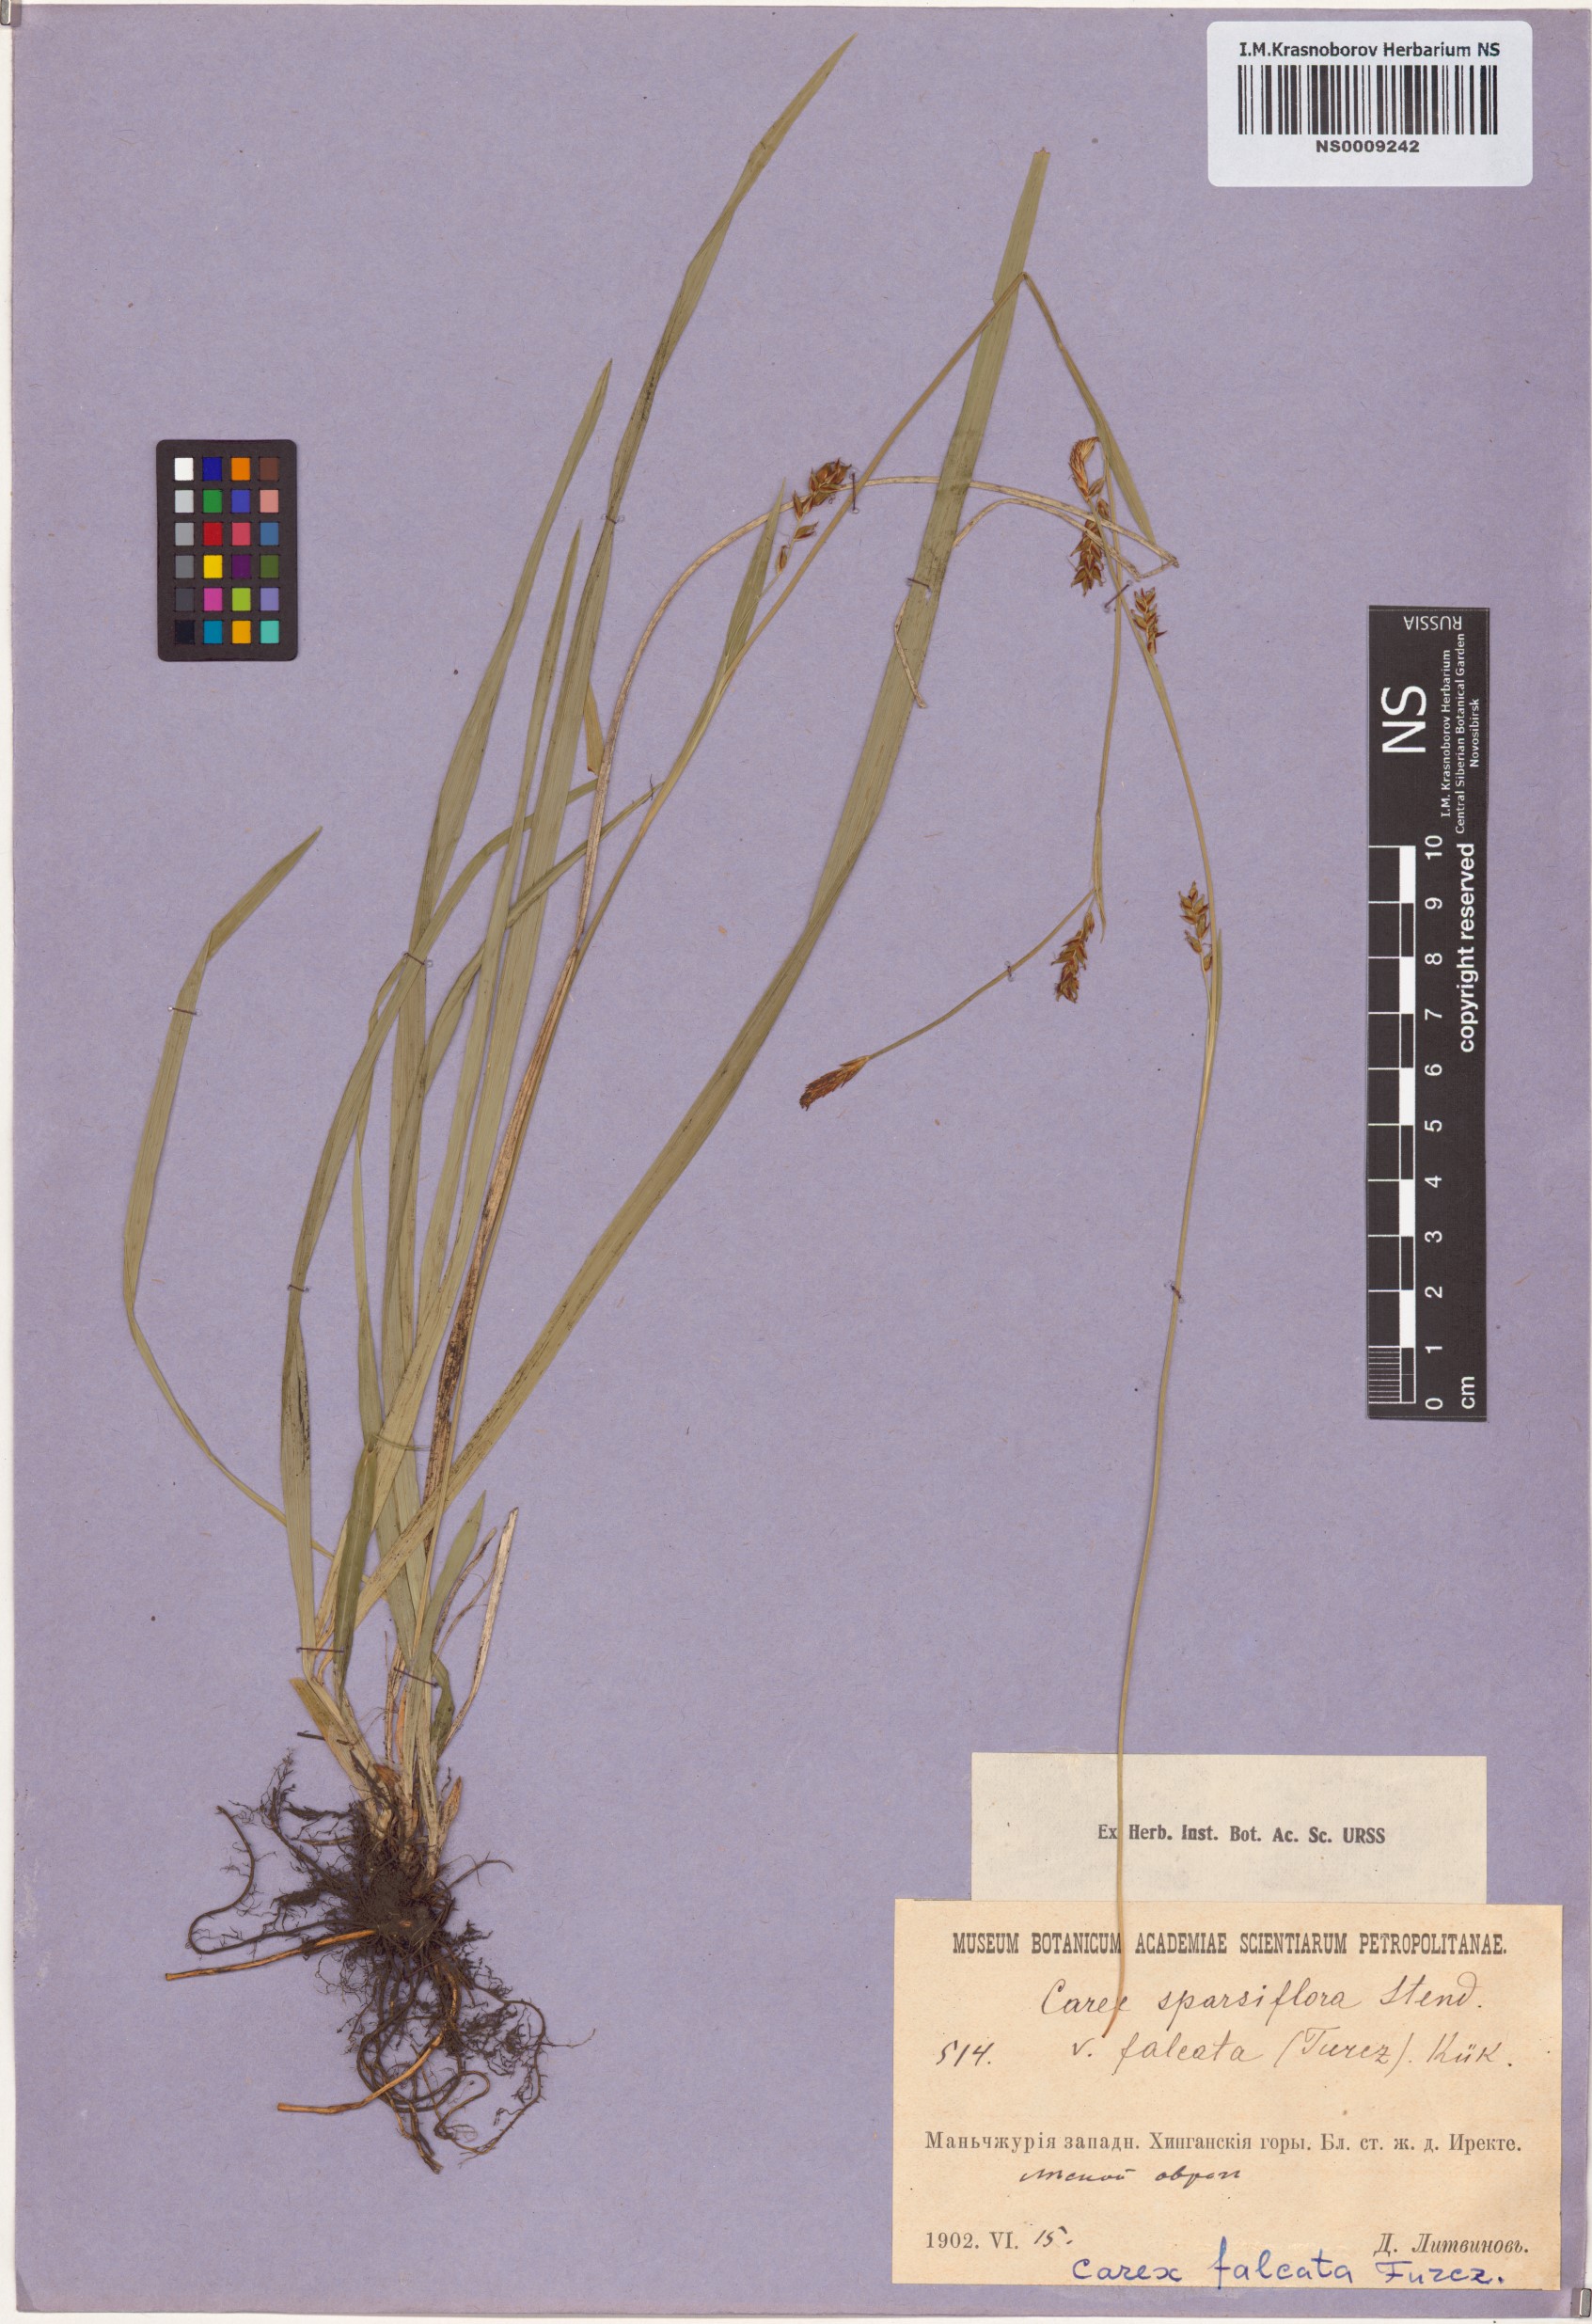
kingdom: Plantae
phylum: Tracheophyta
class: Liliopsida
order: Poales
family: Cyperaceae
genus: Carex
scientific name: Carex vaginata
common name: Sheathed sedge
